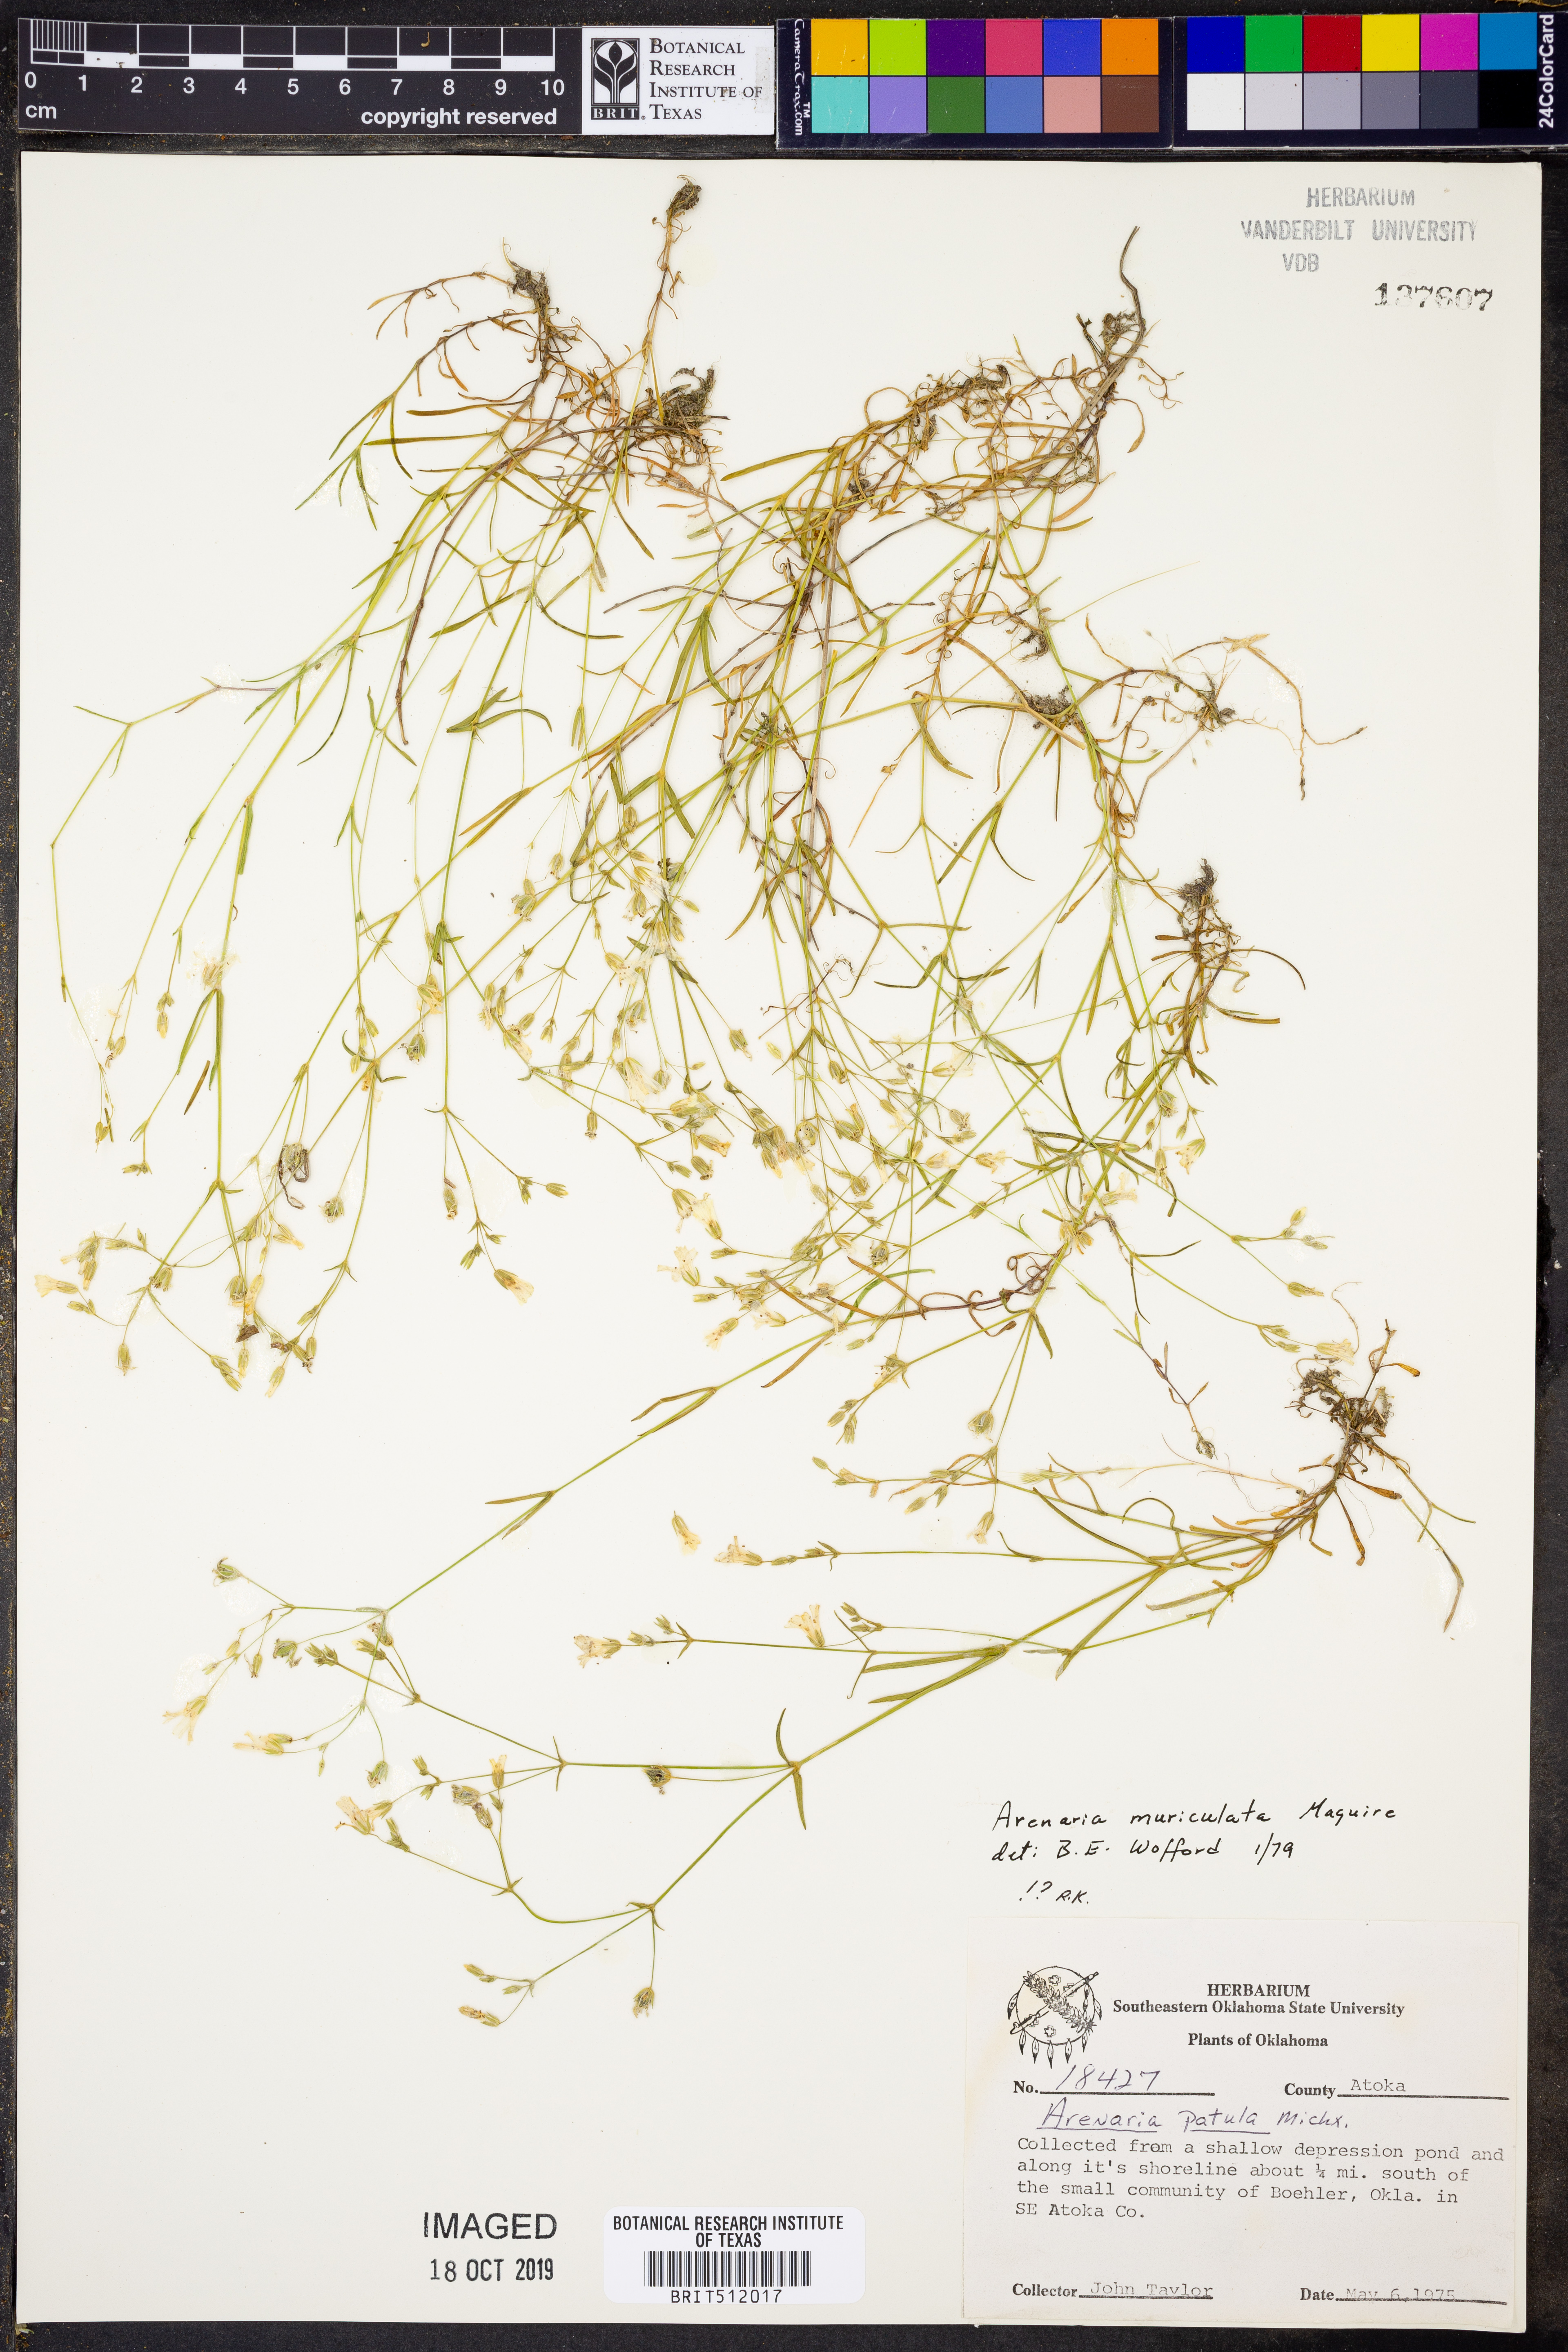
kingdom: Plantae
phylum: Tracheophyta
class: Magnoliopsida
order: Caryophyllales
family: Caryophyllaceae
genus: Mononeuria
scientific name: Mononeuria muscorum
